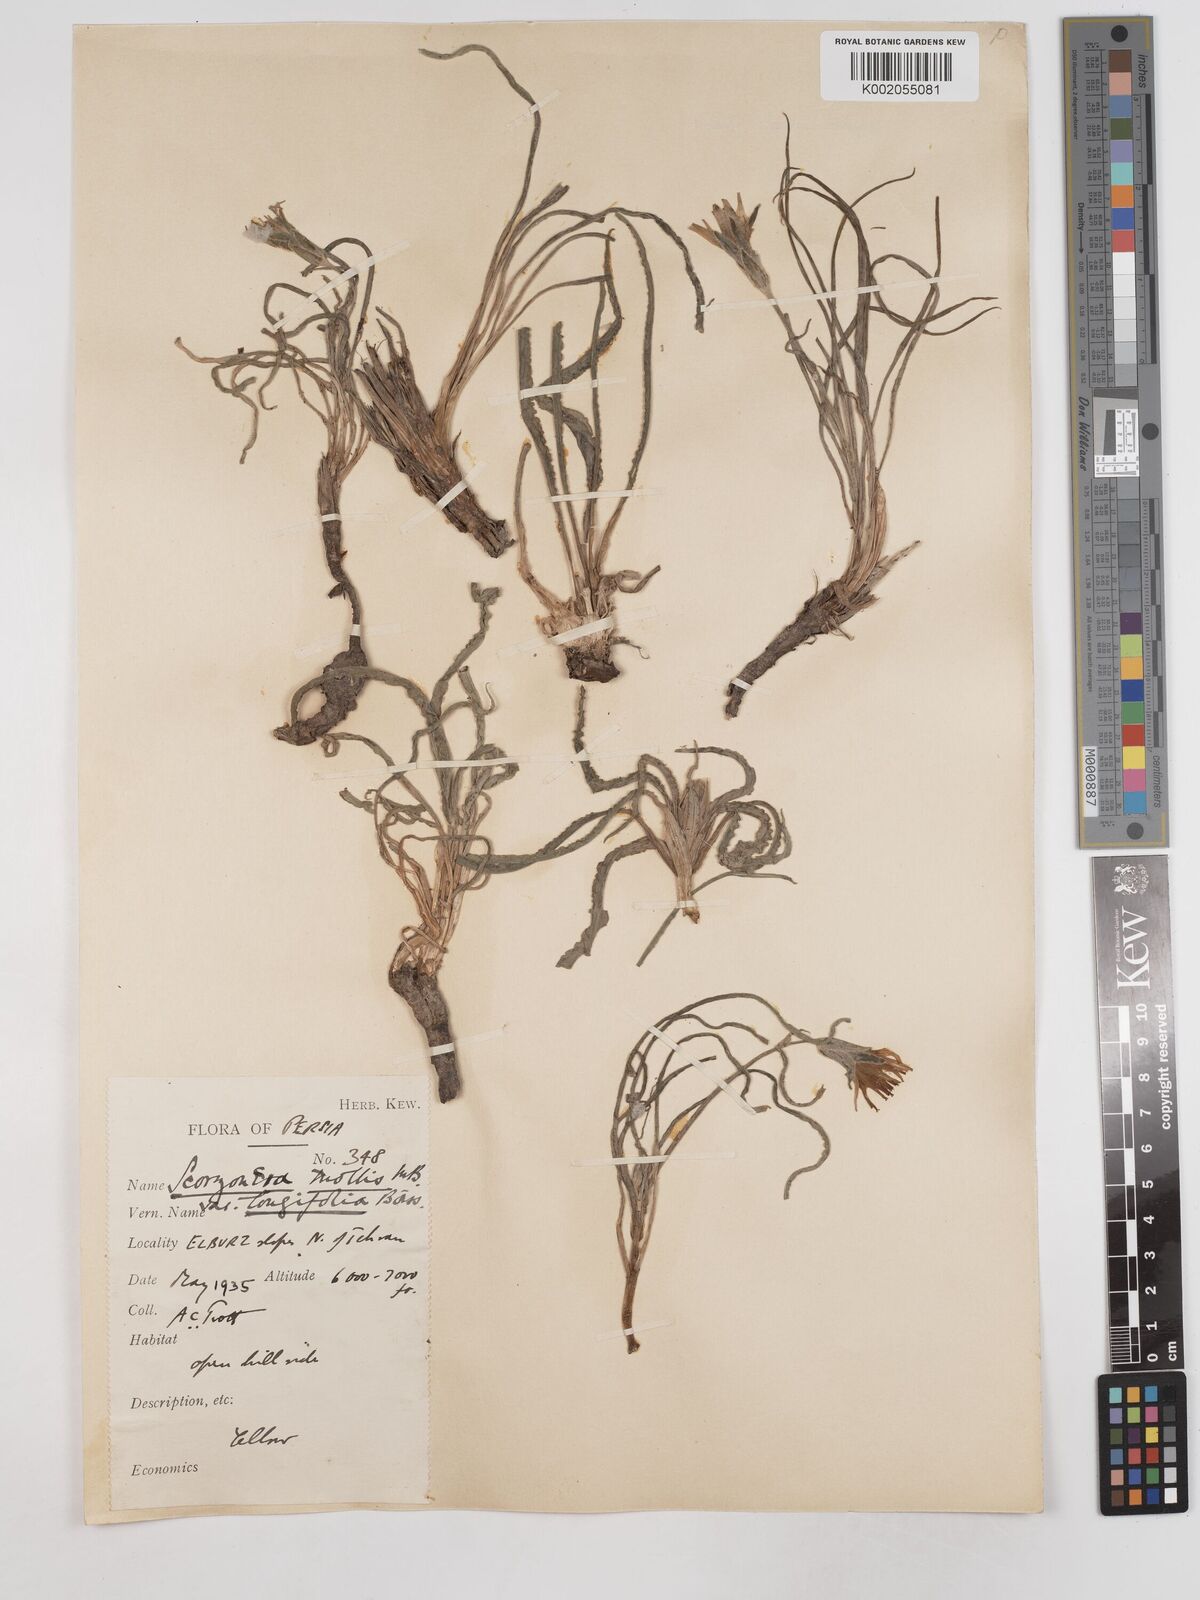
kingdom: Plantae
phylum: Tracheophyta
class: Magnoliopsida
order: Asterales
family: Asteraceae
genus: Candollea
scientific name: Candollea mollis
